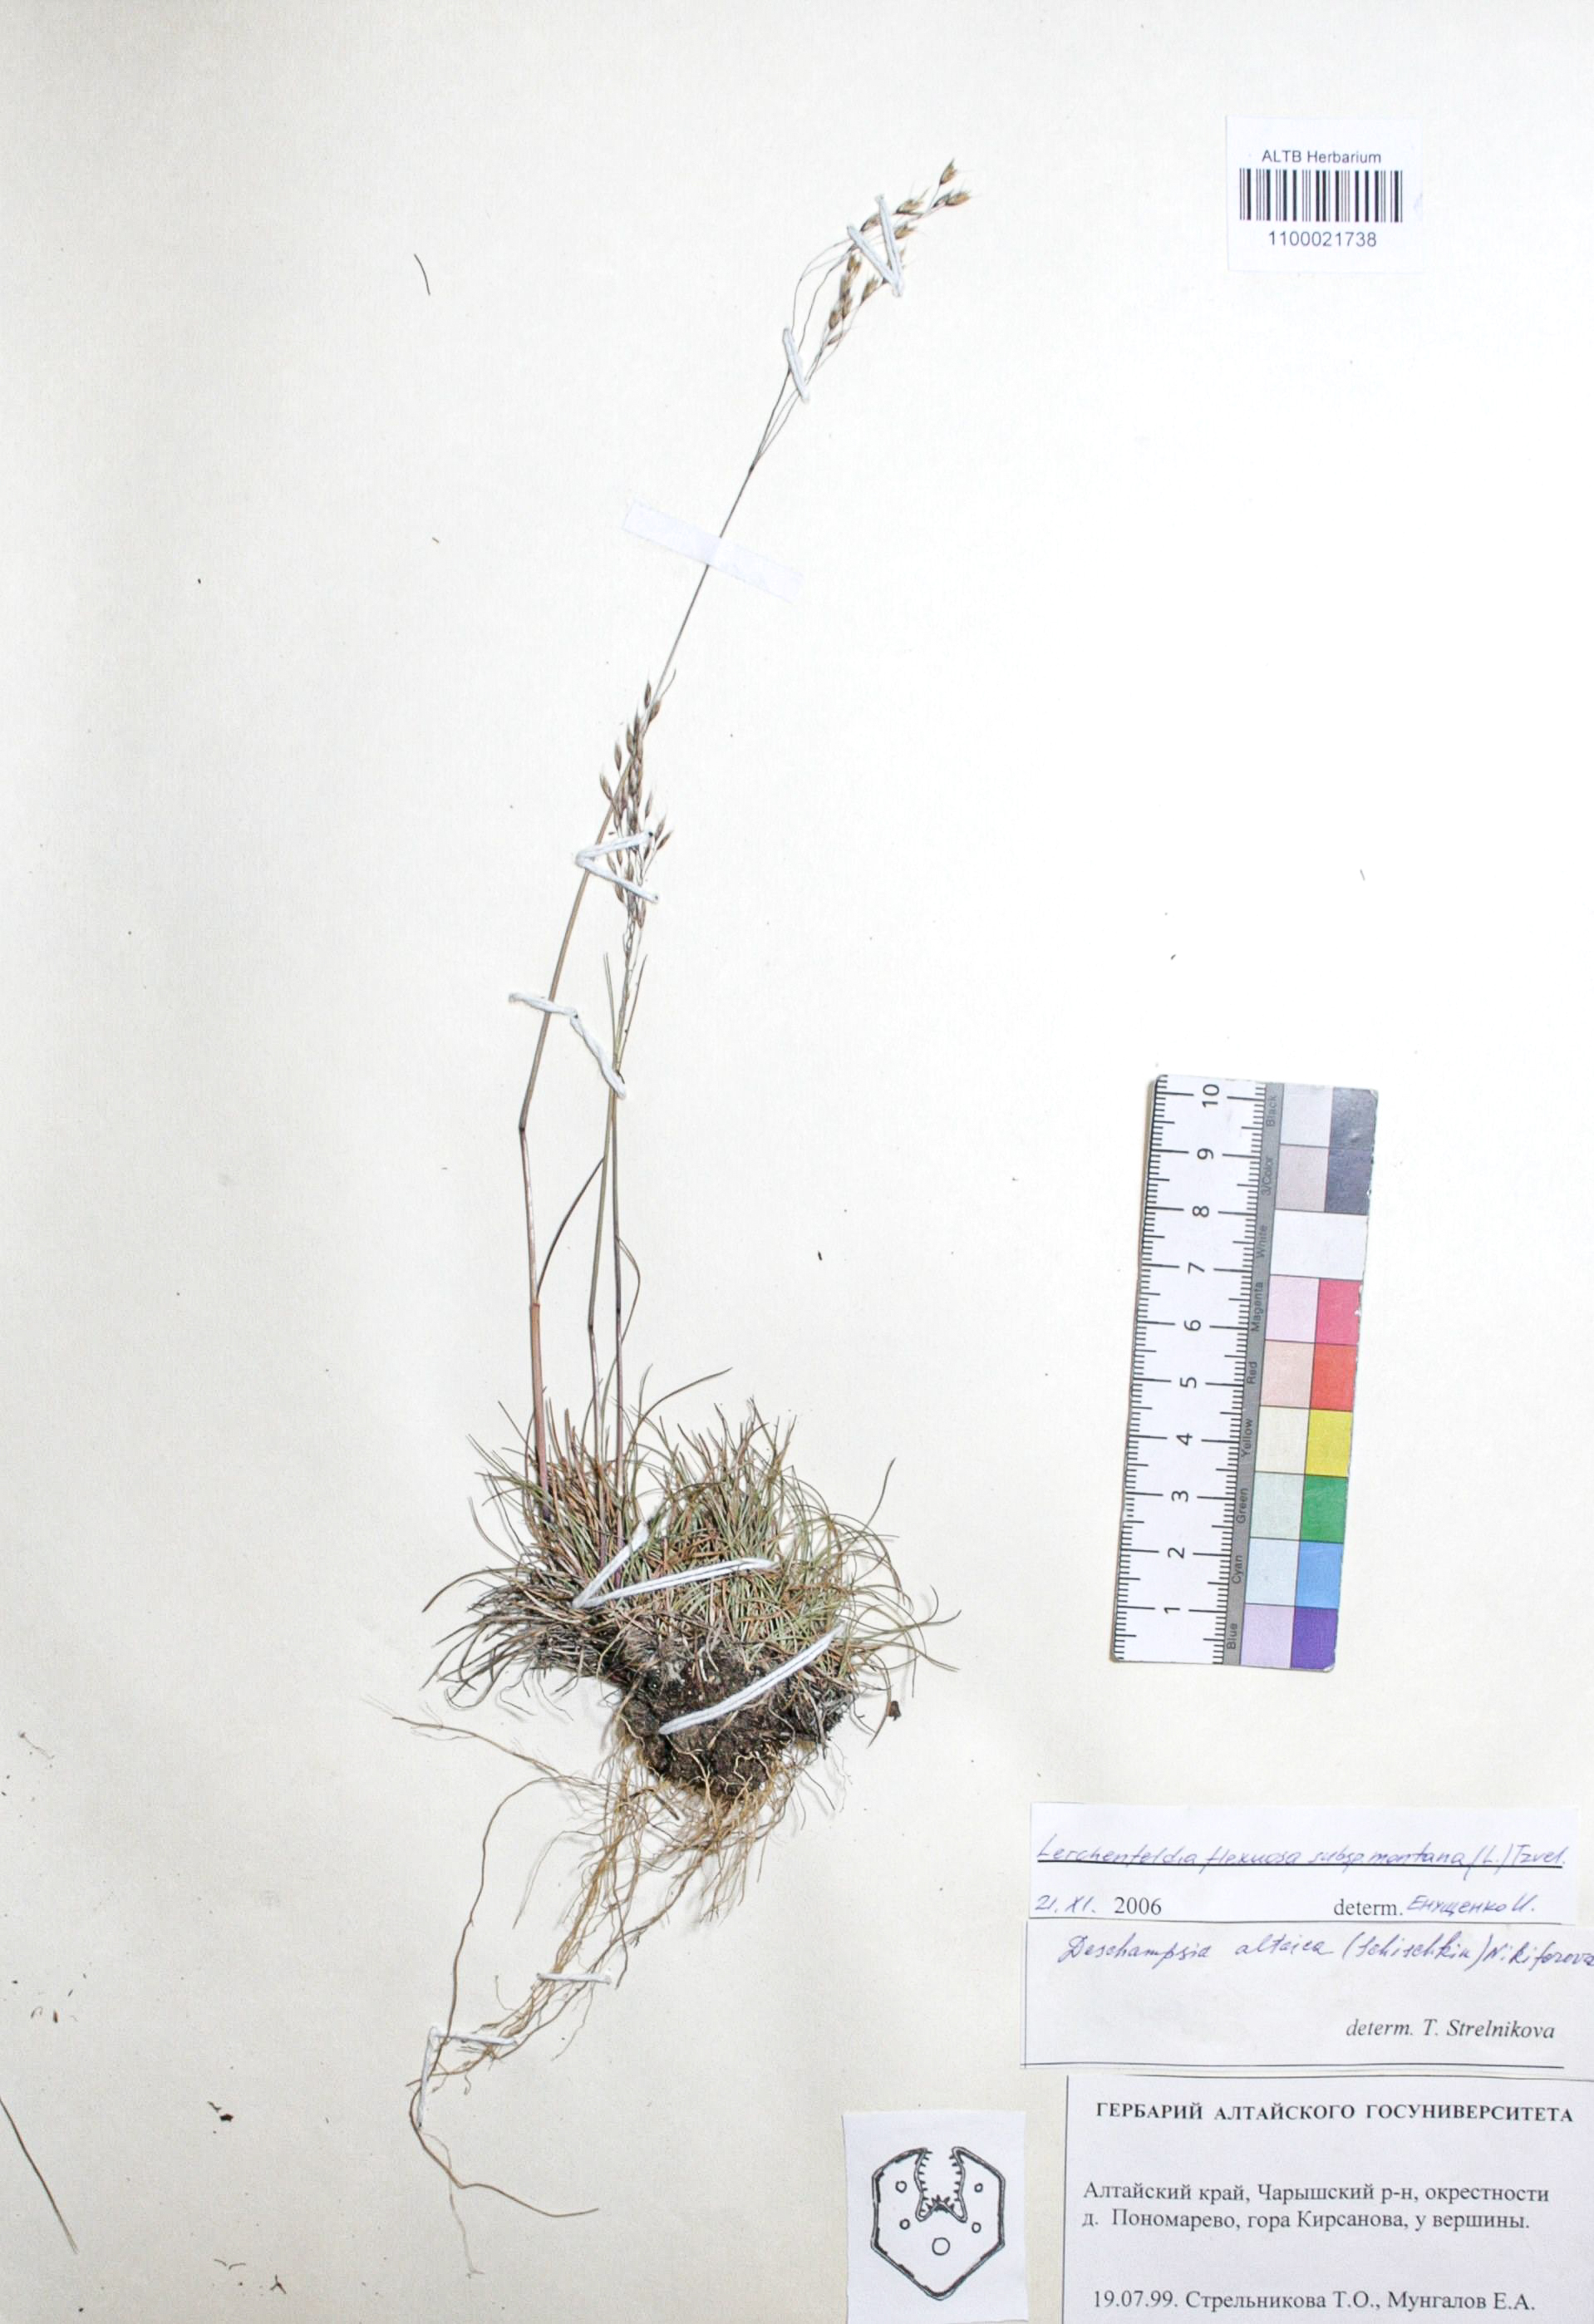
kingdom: Plantae
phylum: Tracheophyta
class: Liliopsida
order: Poales
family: Poaceae
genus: Avenella
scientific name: Avenella flexuosa
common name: Wavy hairgrass
